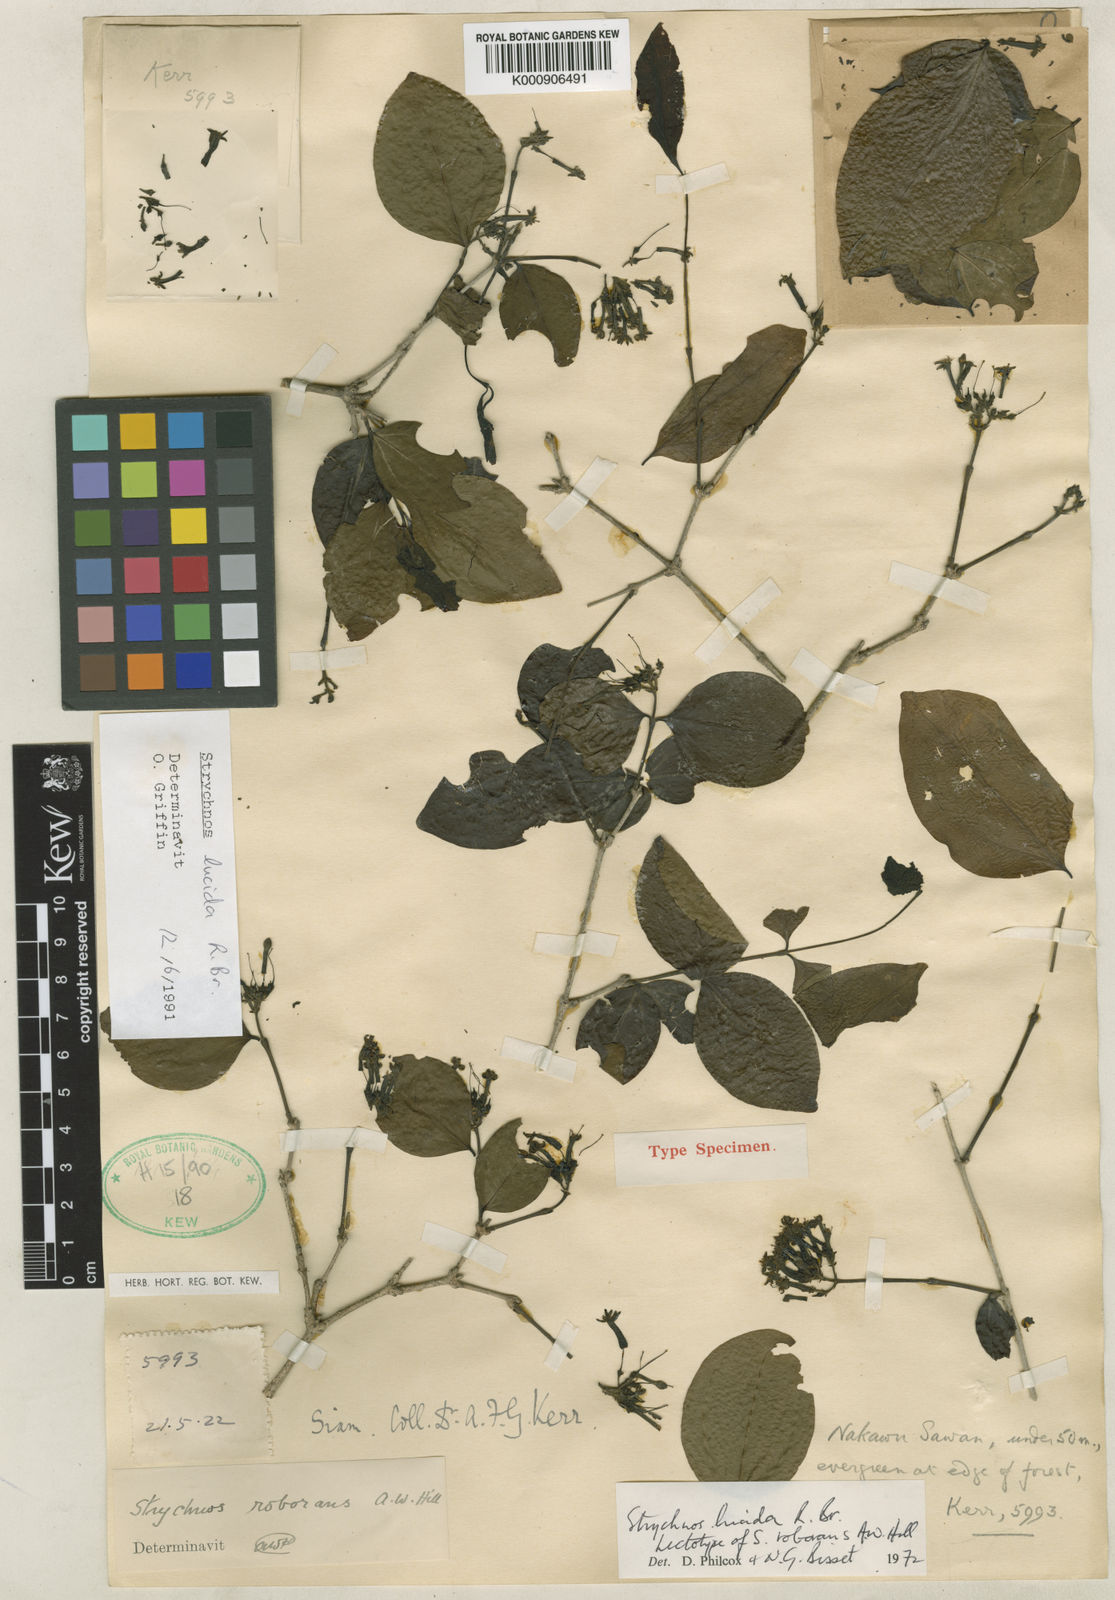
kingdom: Plantae
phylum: Tracheophyta
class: Magnoliopsida
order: Gentianales
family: Loganiaceae
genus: Strychnos
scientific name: Strychnos lucida
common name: Strychninebush
